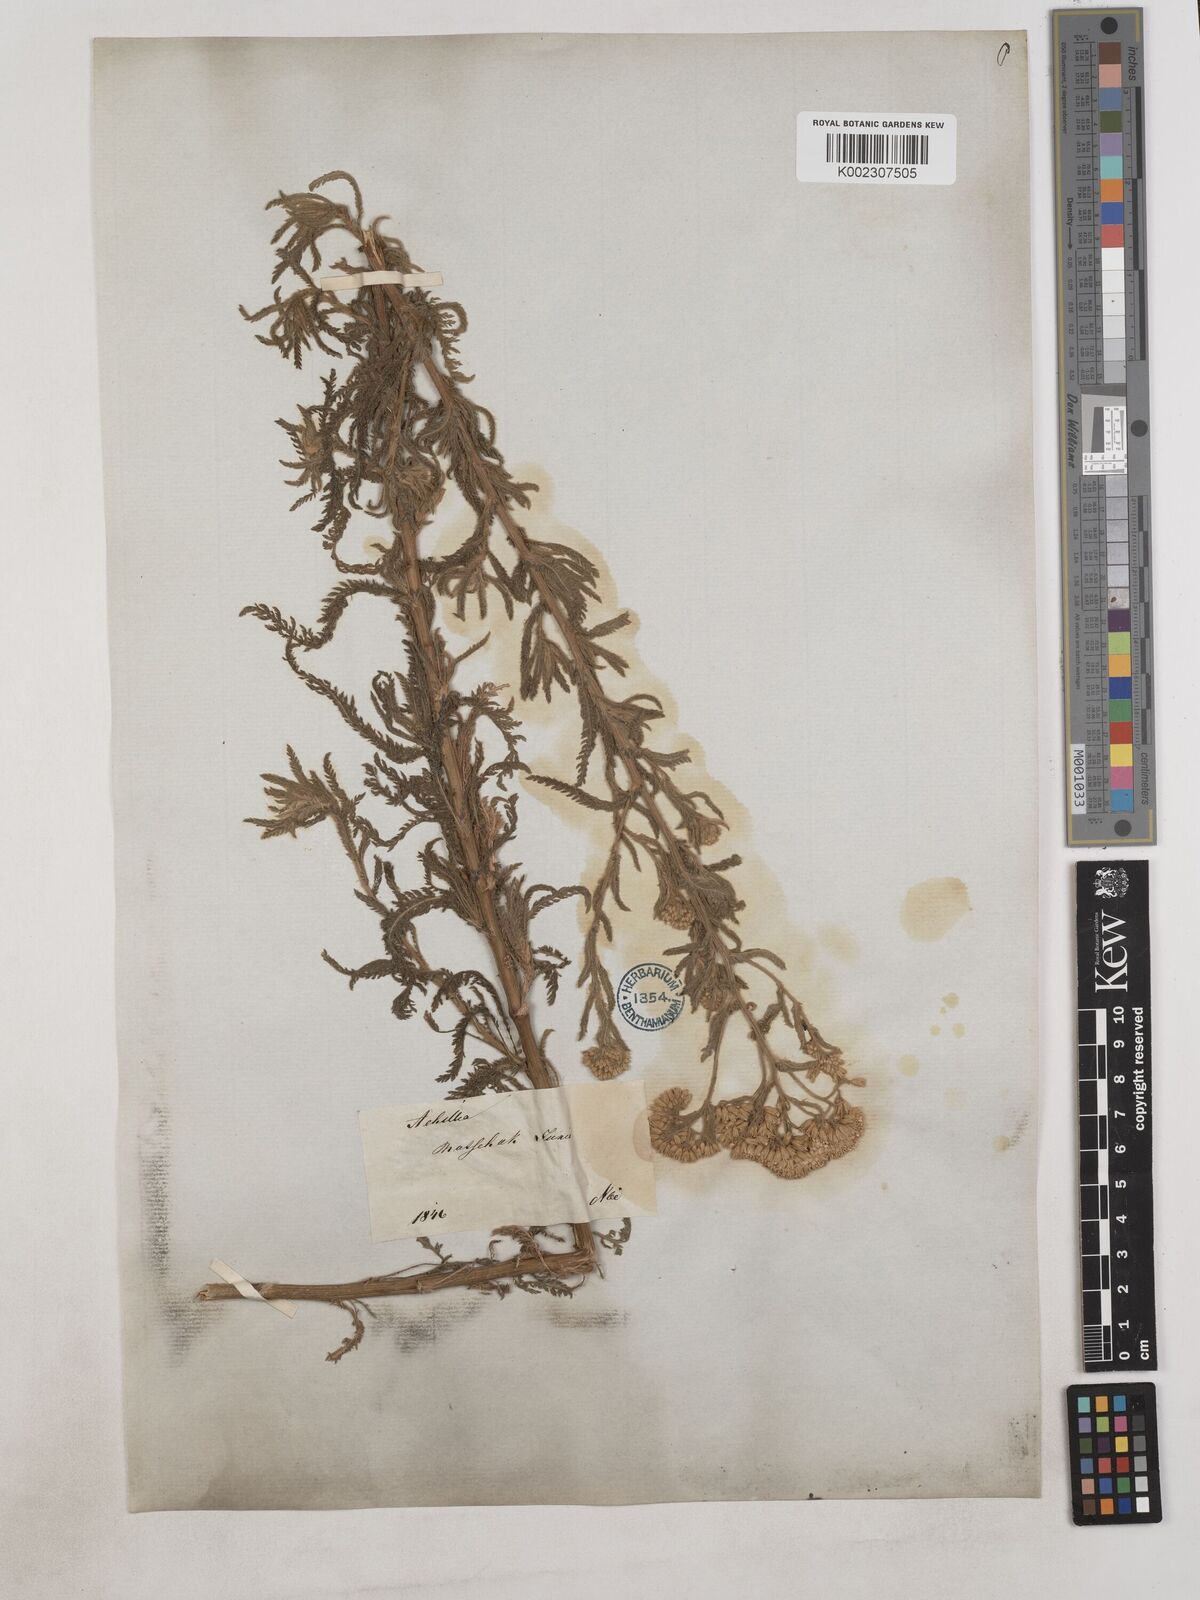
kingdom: Plantae
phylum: Tracheophyta
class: Magnoliopsida
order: Asterales
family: Asteraceae
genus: Achillea
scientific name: Achillea arabica
